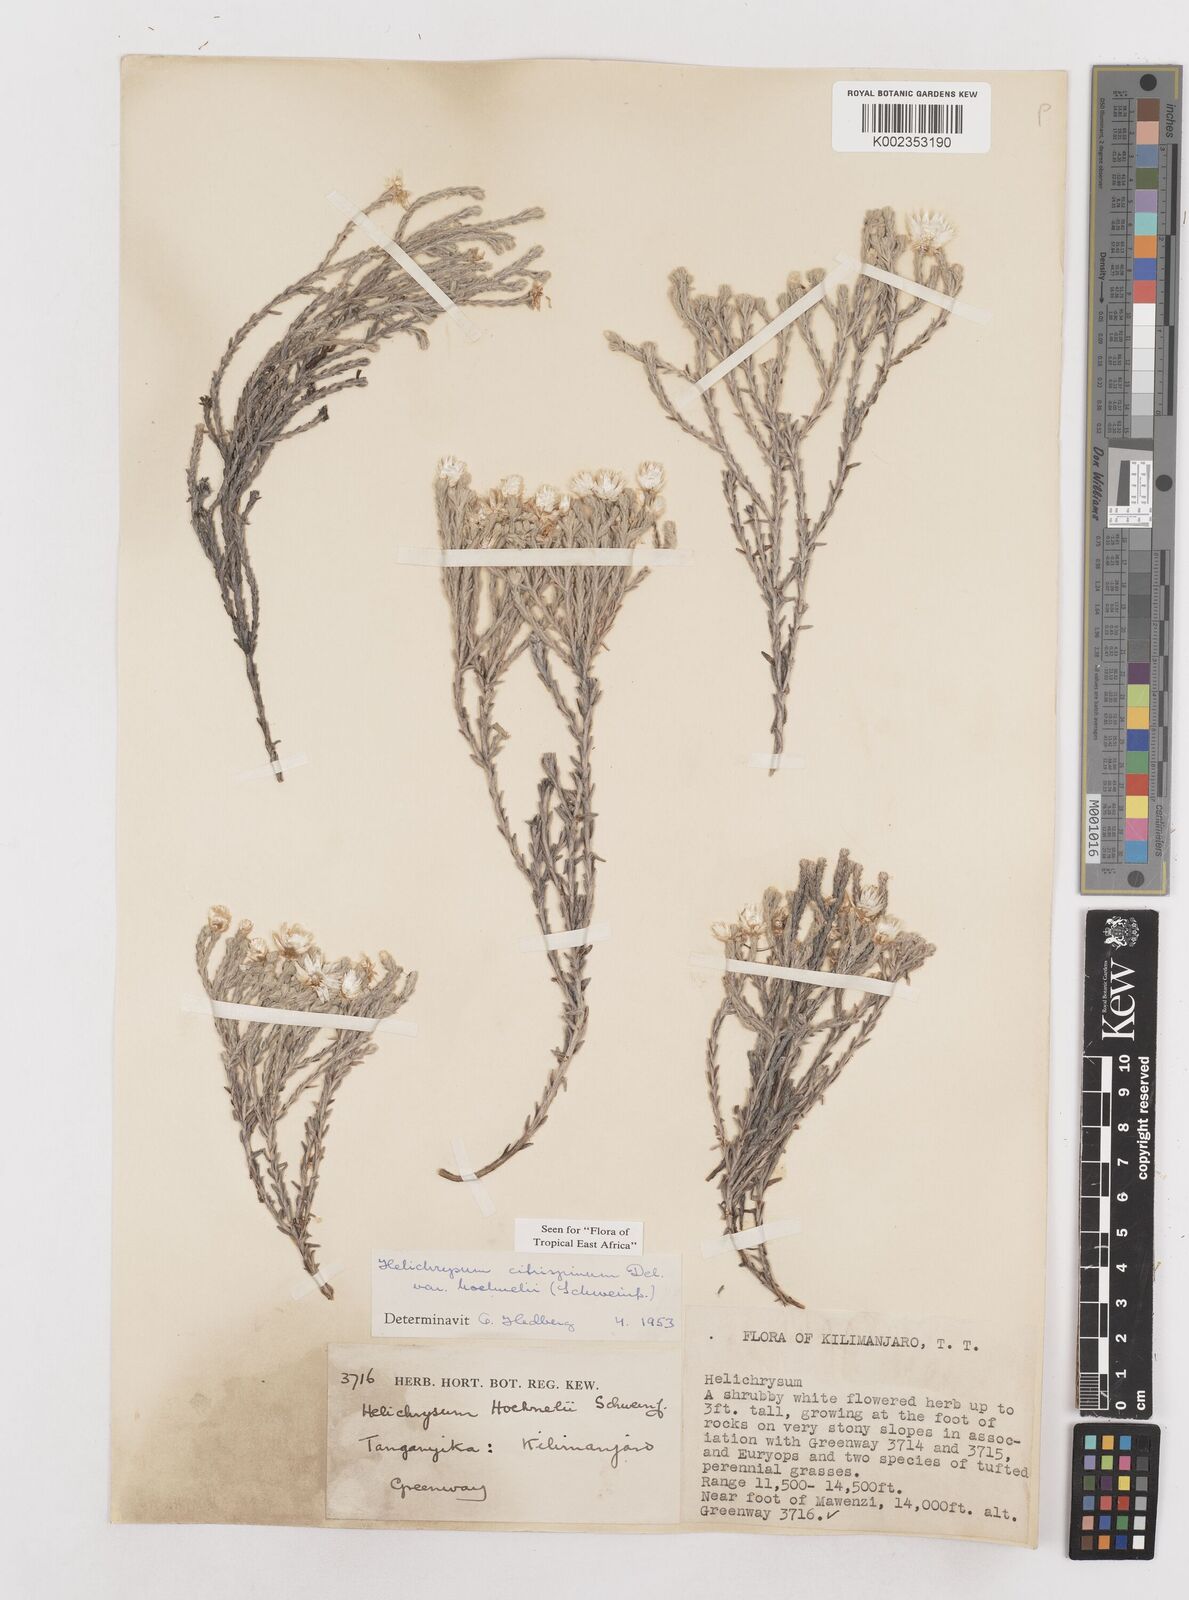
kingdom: Plantae
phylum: Tracheophyta
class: Magnoliopsida
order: Asterales
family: Asteraceae
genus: Helichrysum
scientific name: Helichrysum citrispinum
